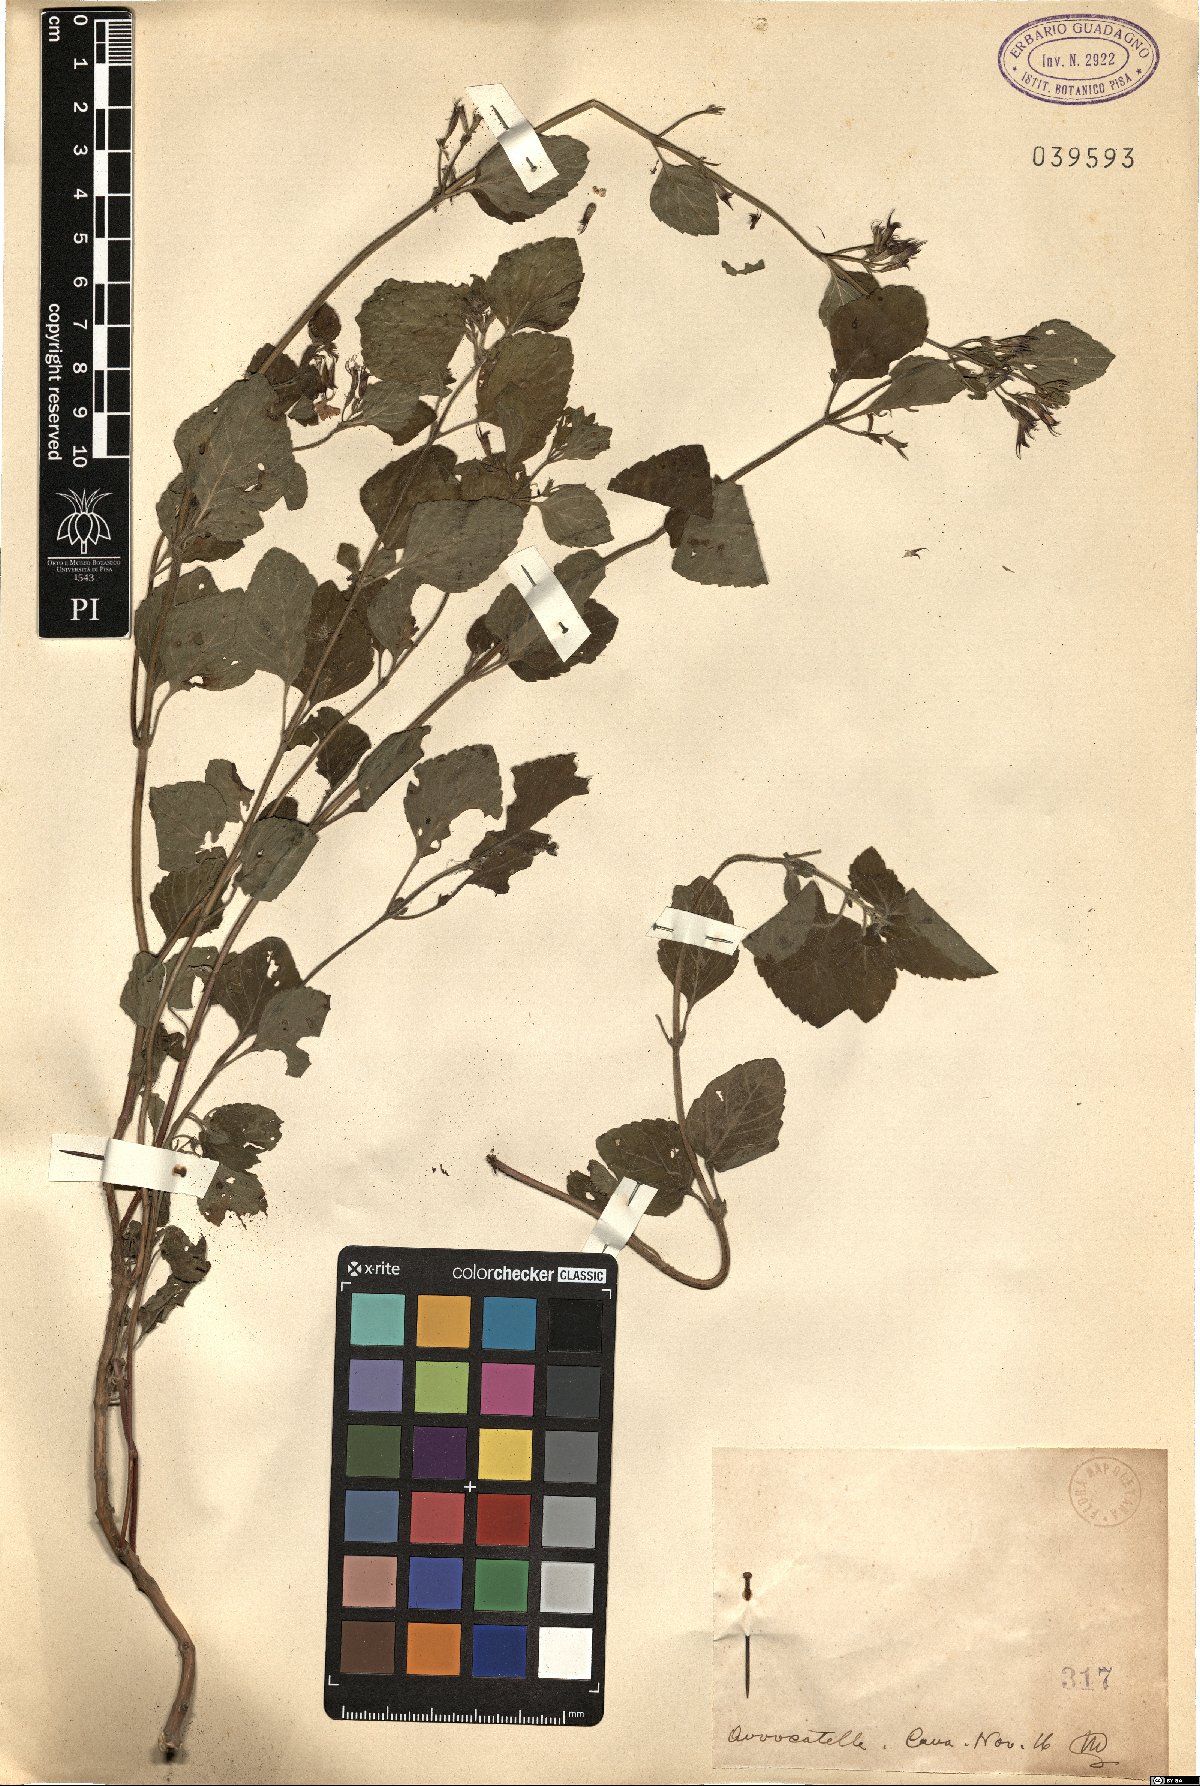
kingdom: Plantae
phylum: Tracheophyta
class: Magnoliopsida
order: Lamiales
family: Lamiaceae
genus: Calamintha
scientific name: Calamintha
